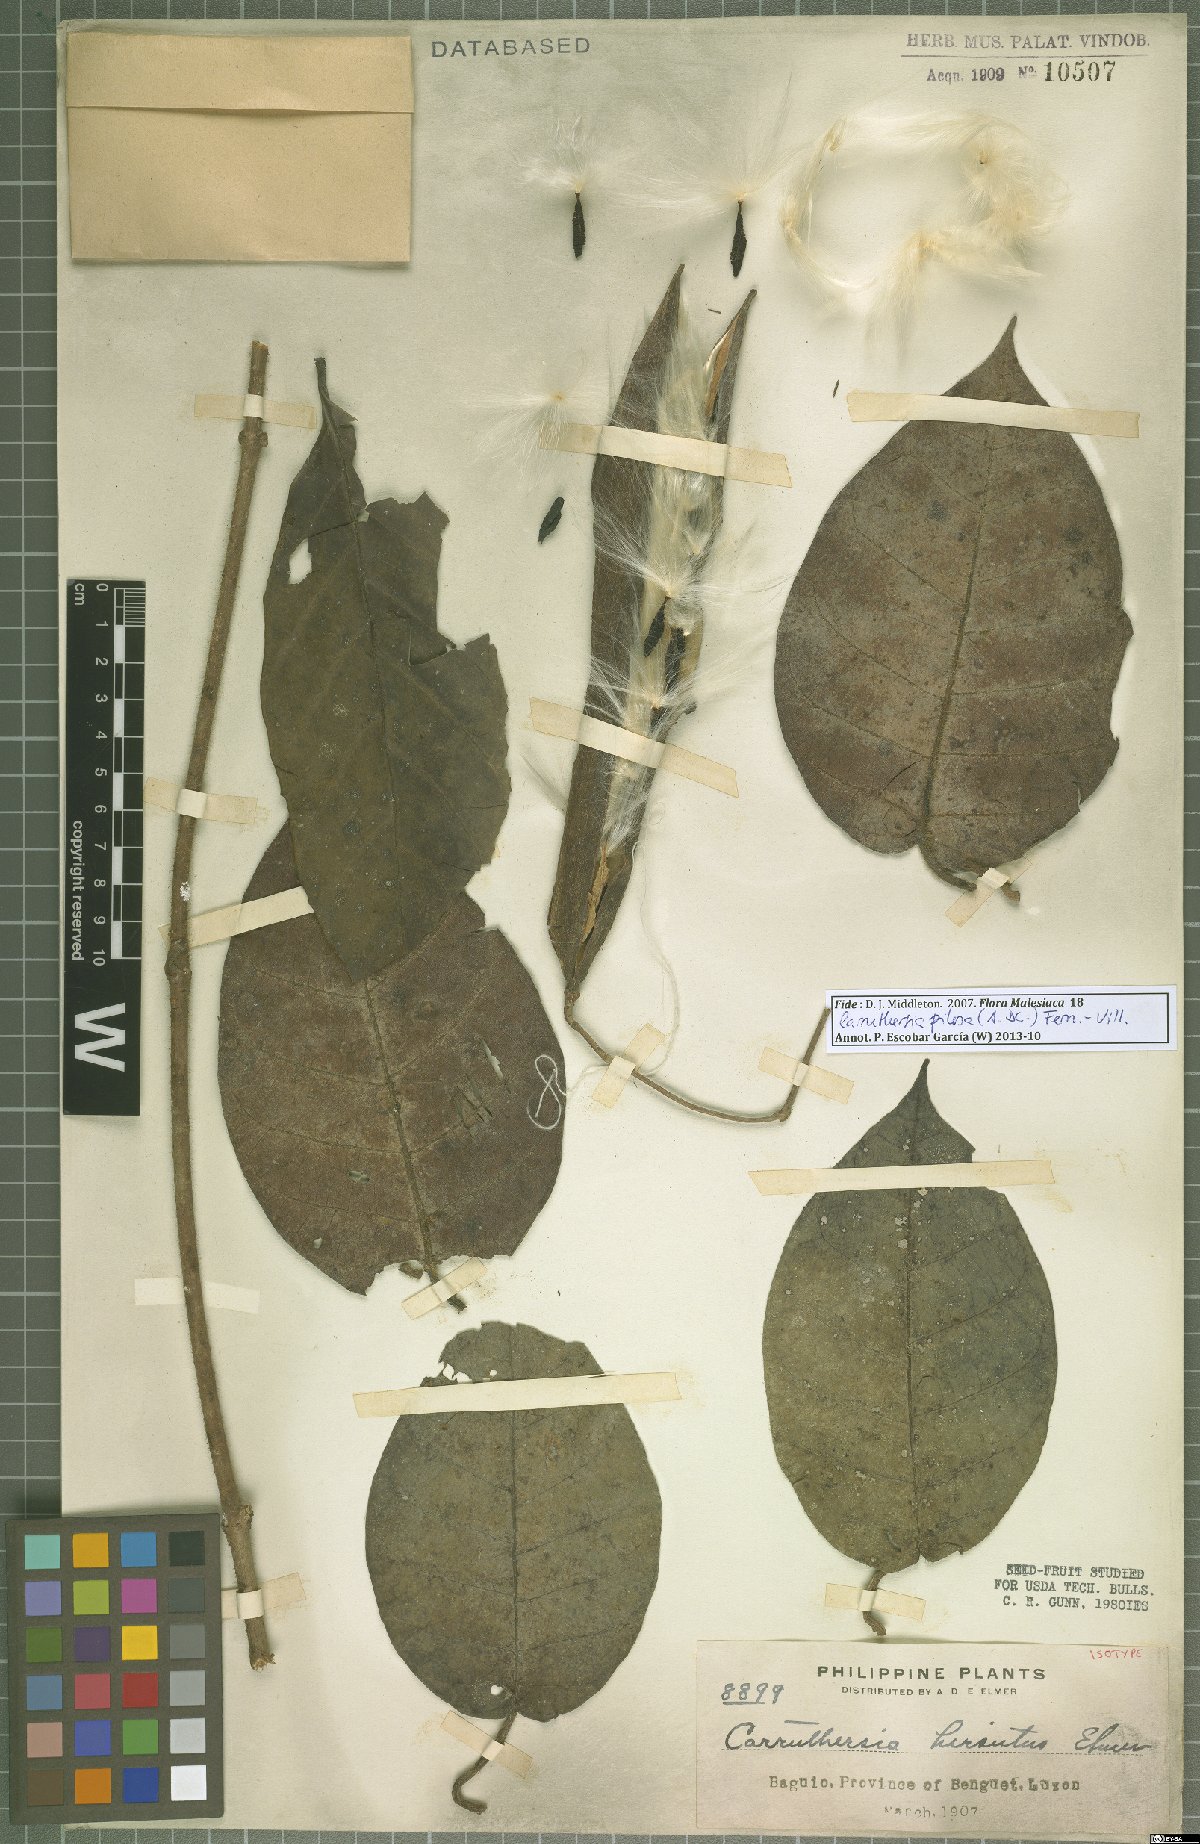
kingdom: Plantae
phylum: Tracheophyta
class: Magnoliopsida
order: Gentianales
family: Apocynaceae
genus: Carruthersia
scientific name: Carruthersia pilosa
